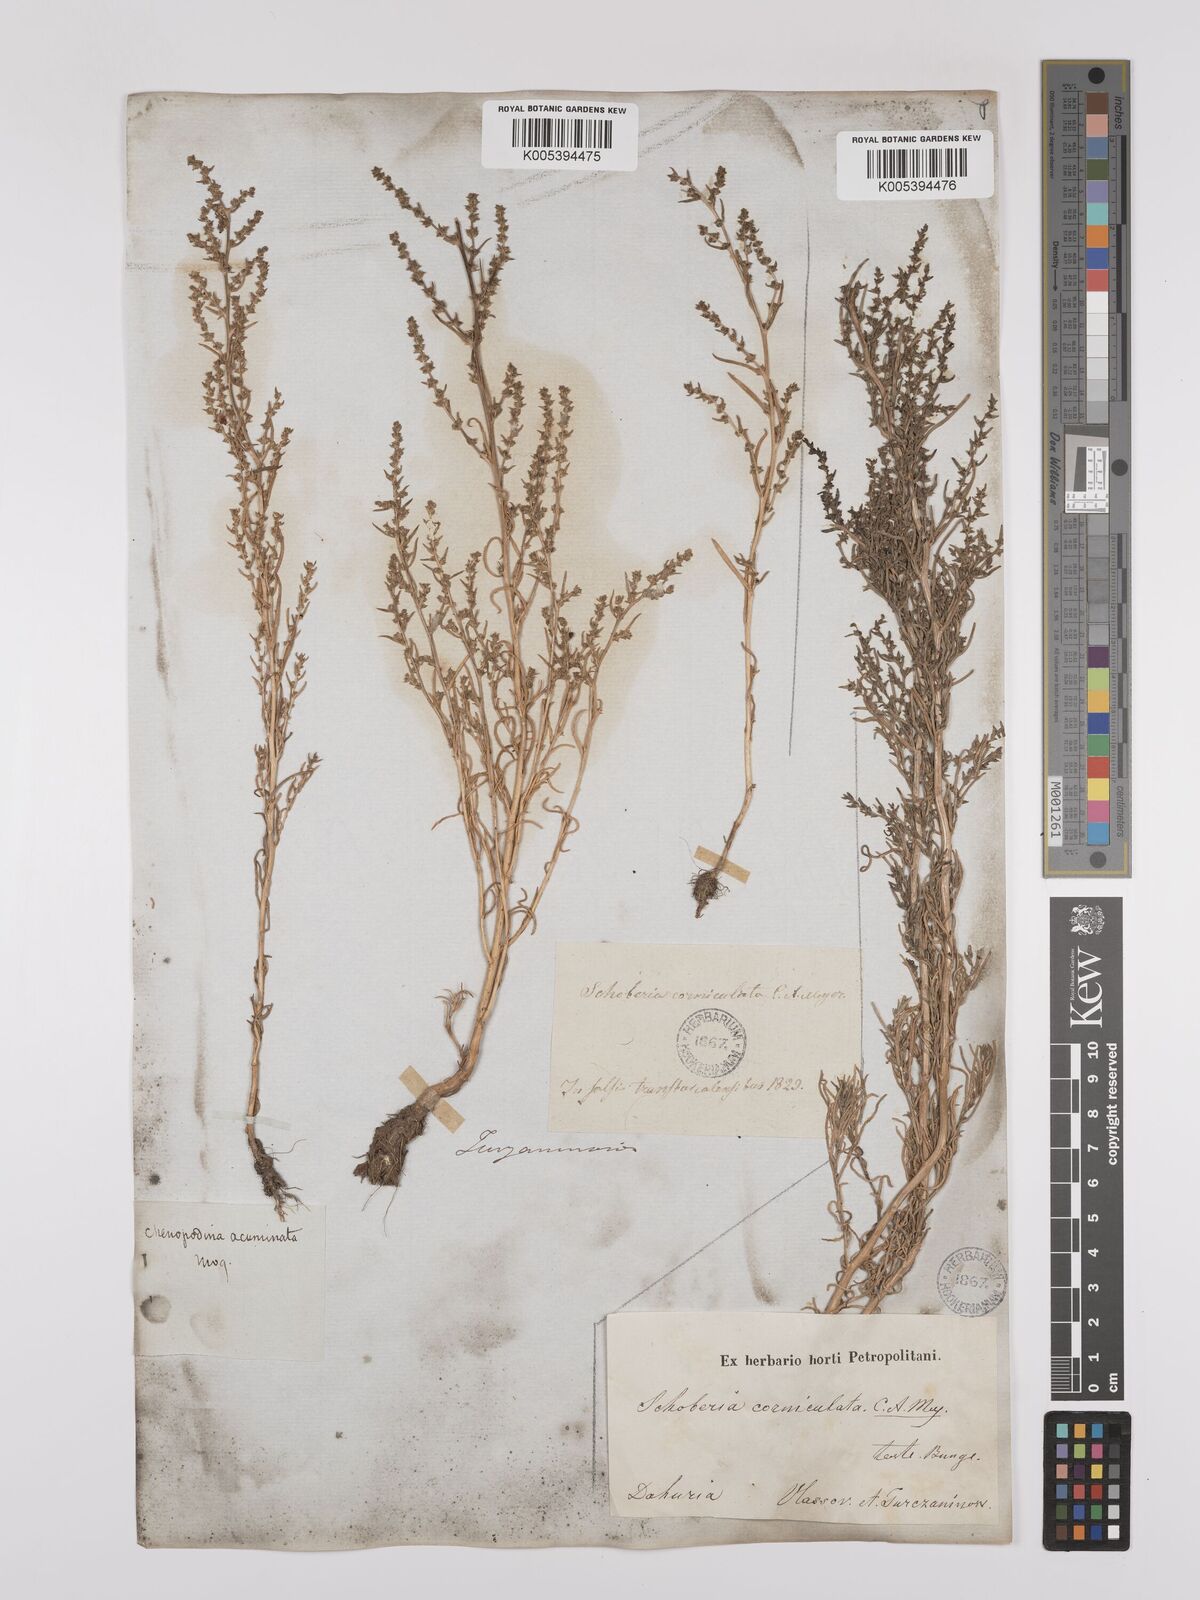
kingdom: Plantae
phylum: Tracheophyta
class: Magnoliopsida
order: Caryophyllales
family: Amaranthaceae
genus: Suaeda
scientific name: Suaeda acuminata
